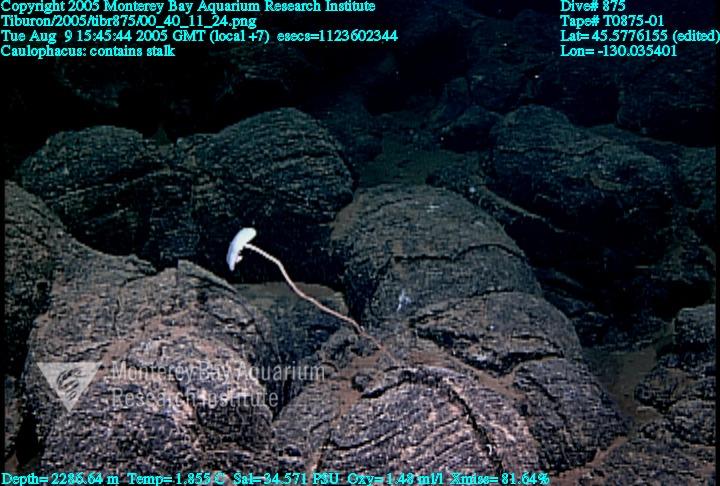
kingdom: Animalia
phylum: Porifera
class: Hexactinellida
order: Lyssacinosida
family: Rossellidae
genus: Caulophacus
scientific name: Caulophacus
